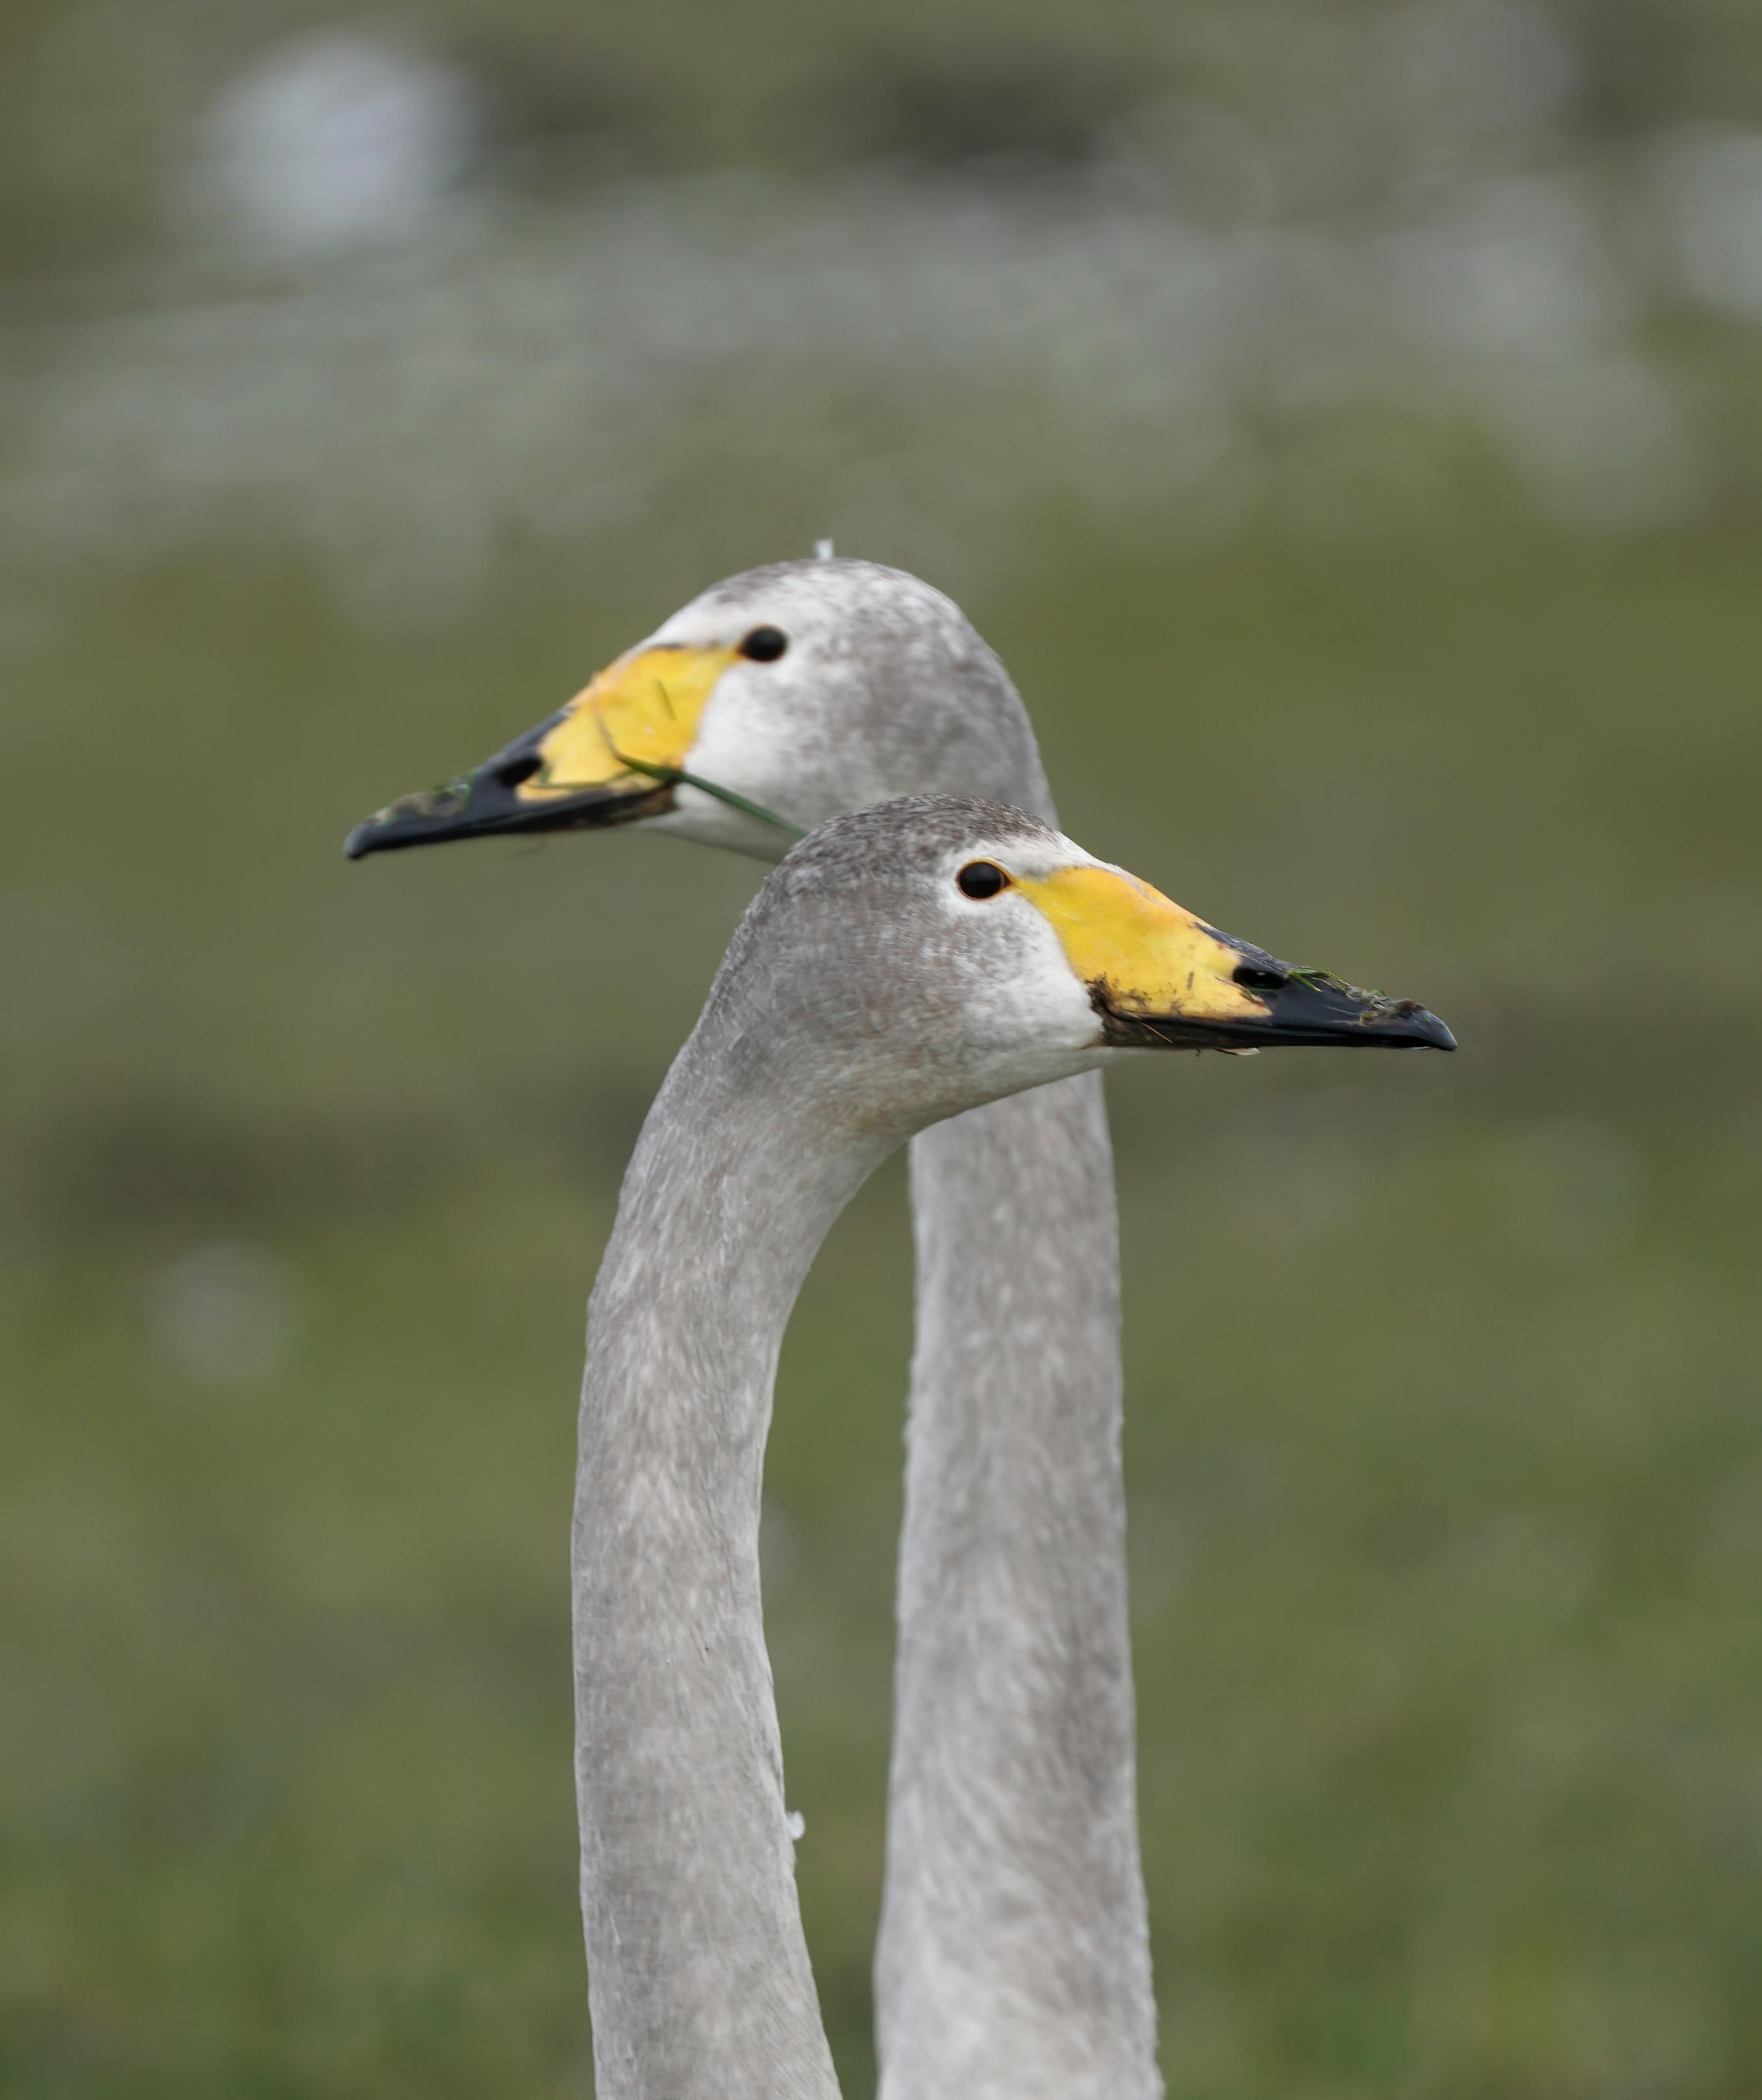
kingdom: Animalia
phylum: Chordata
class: Aves
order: Anseriformes
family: Anatidae
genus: Cygnus
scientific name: Cygnus cygnus
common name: Sangsvane
